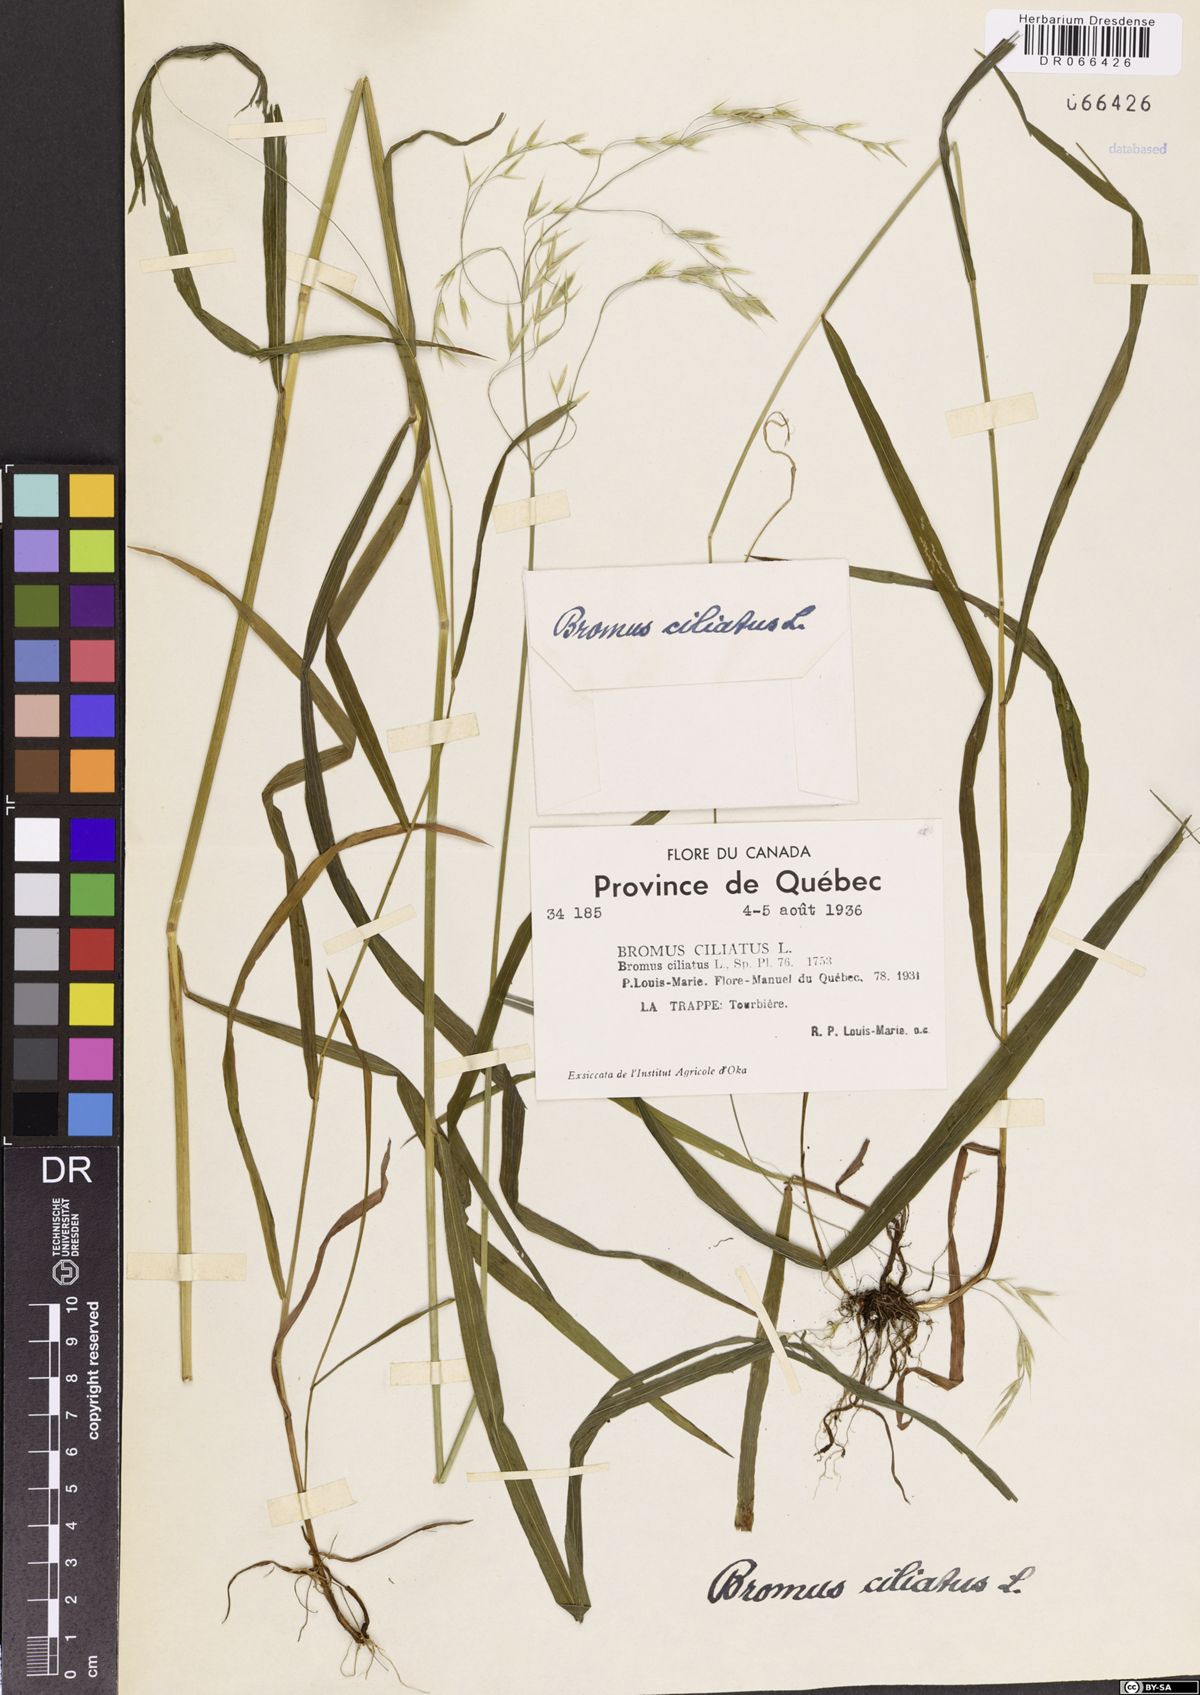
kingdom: Plantae
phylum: Tracheophyta
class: Liliopsida
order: Poales
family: Poaceae
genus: Bromus
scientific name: Bromus ciliatus
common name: Fringe brome
